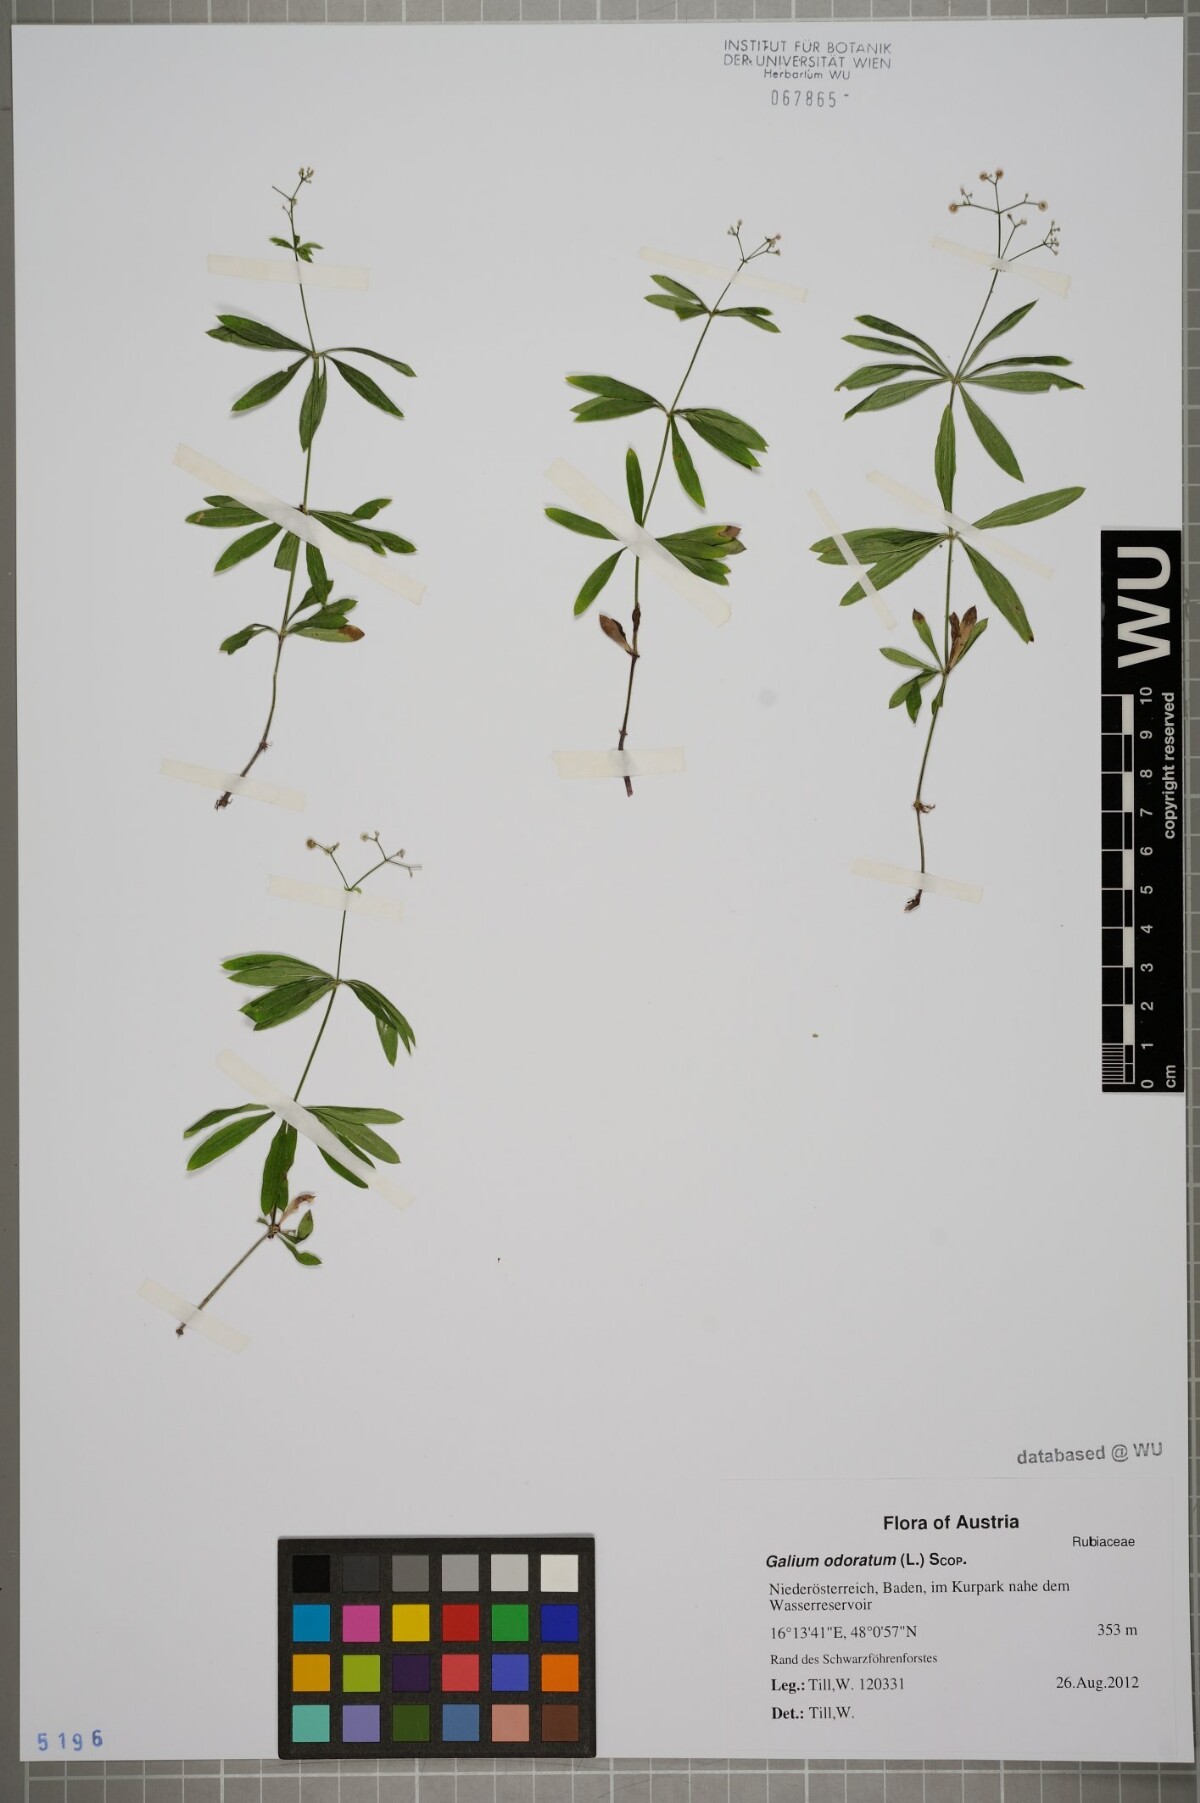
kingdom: Plantae
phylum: Tracheophyta
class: Magnoliopsida
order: Gentianales
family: Rubiaceae
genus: Galium
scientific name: Galium odoratum
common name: Sweet woodruff
